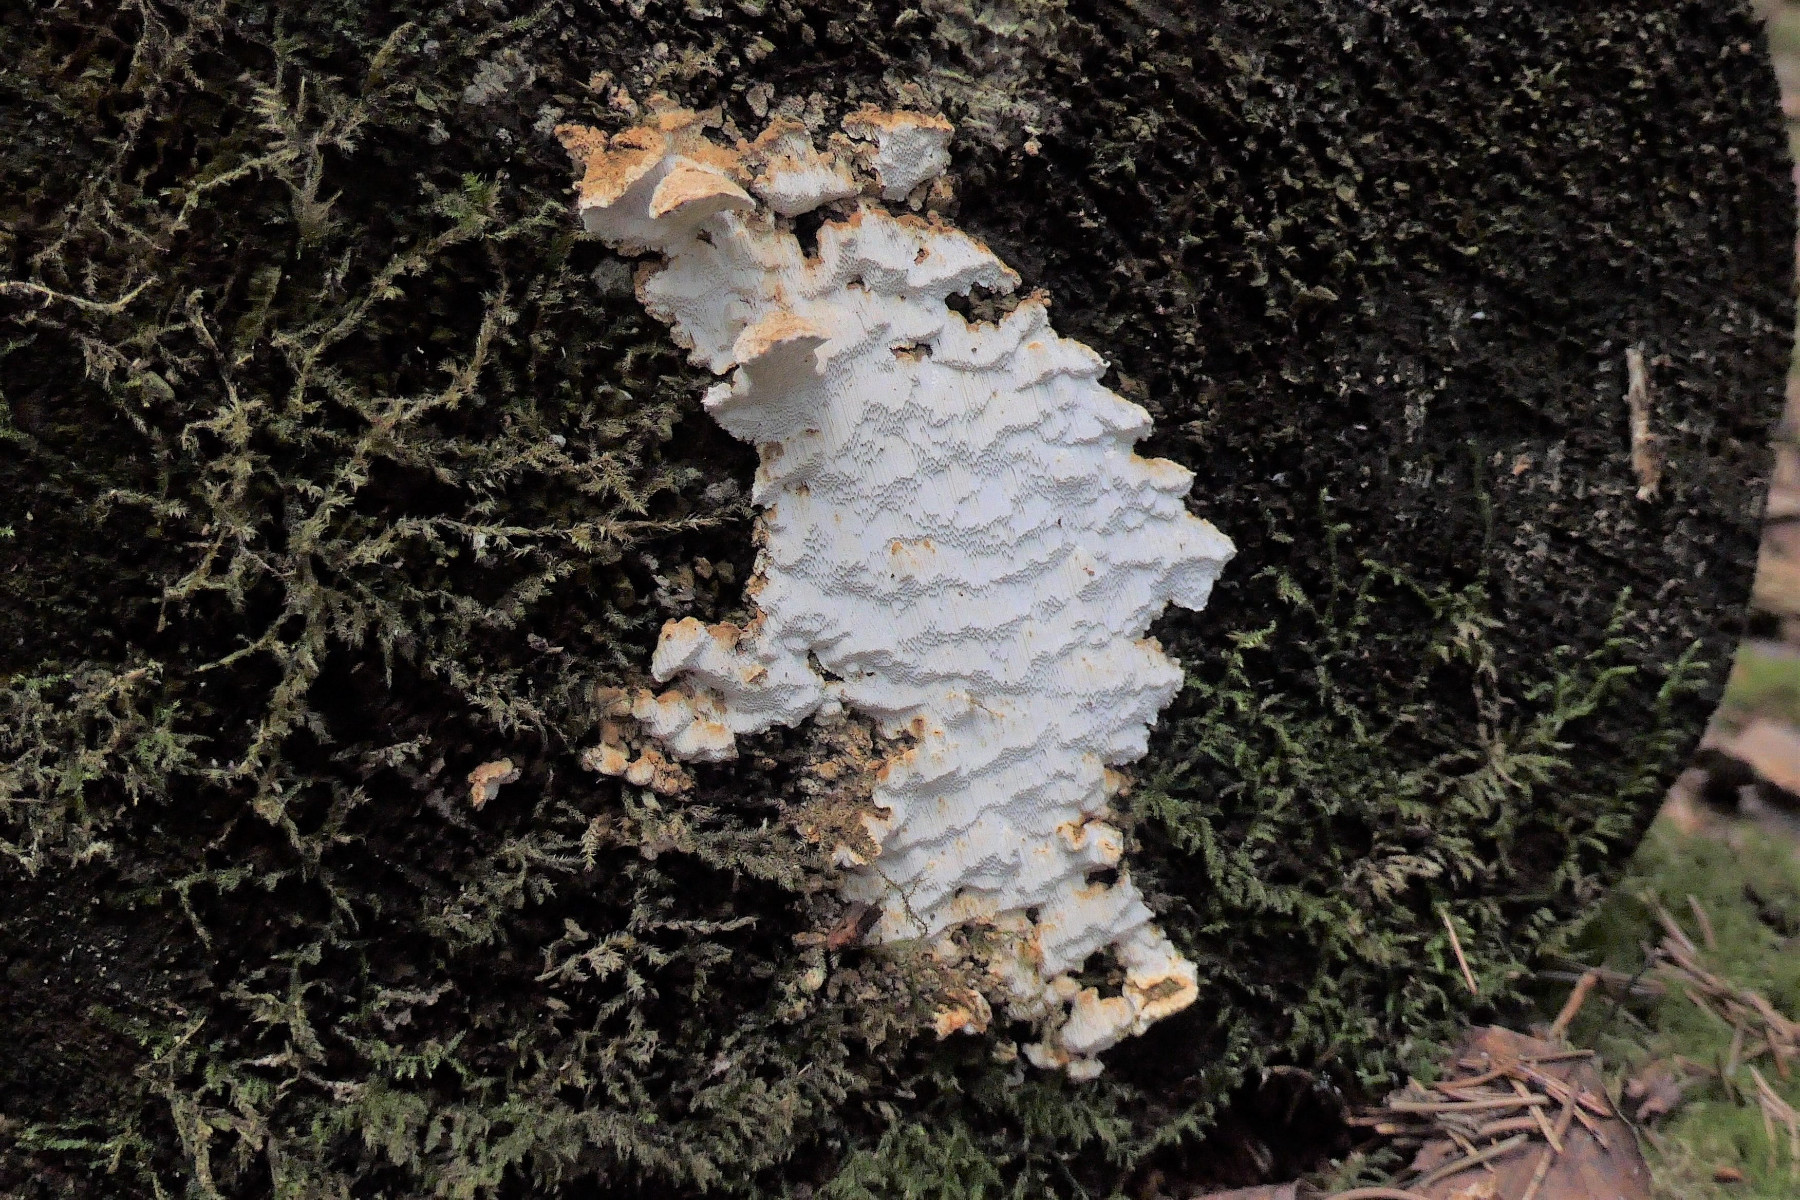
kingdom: Fungi
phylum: Basidiomycota
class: Agaricomycetes
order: Polyporales
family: Fomitopsidaceae
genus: Neoantrodia
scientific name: Neoantrodia serialis
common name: række-sejporesvamp
